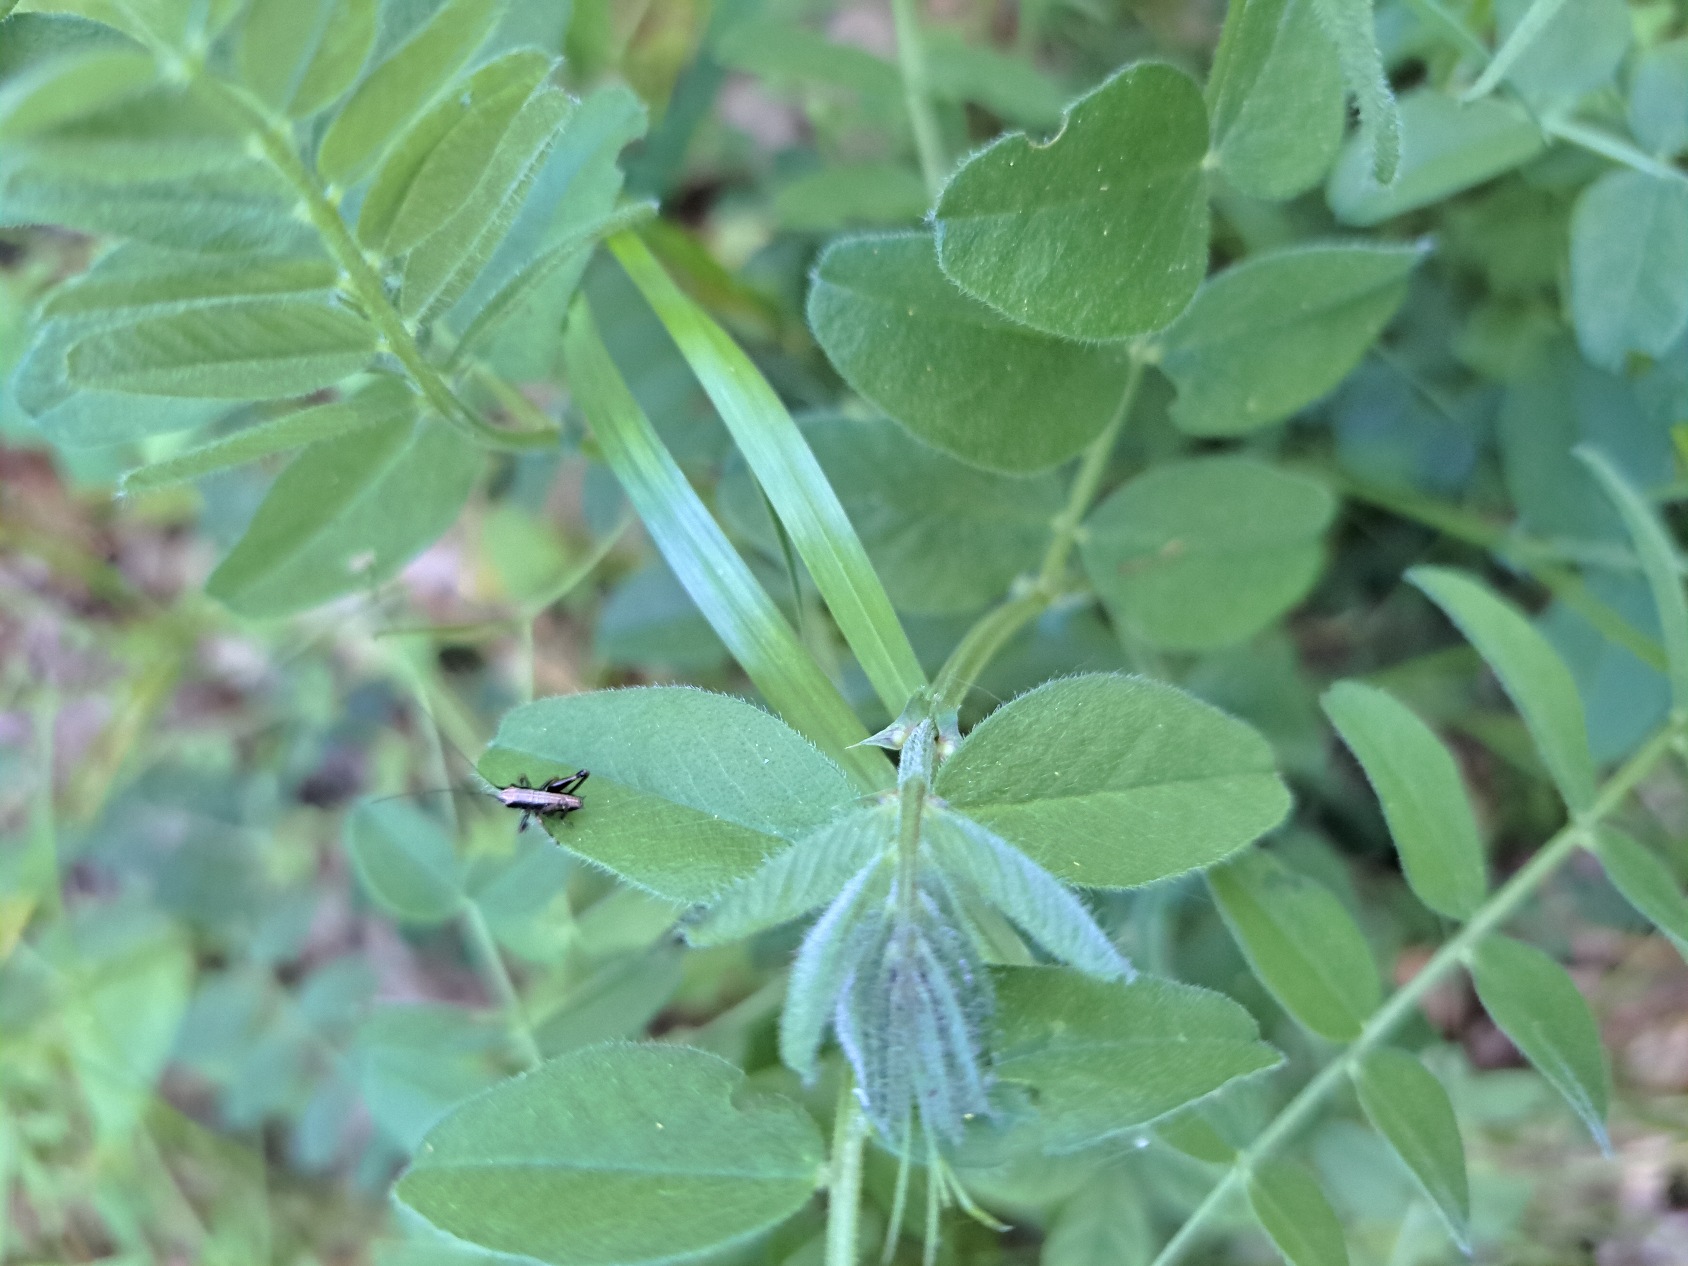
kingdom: Animalia
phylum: Arthropoda
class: Insecta
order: Orthoptera
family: Tettigoniidae
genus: Pholidoptera
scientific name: Pholidoptera griseoaptera
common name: Buskgræshoppe
